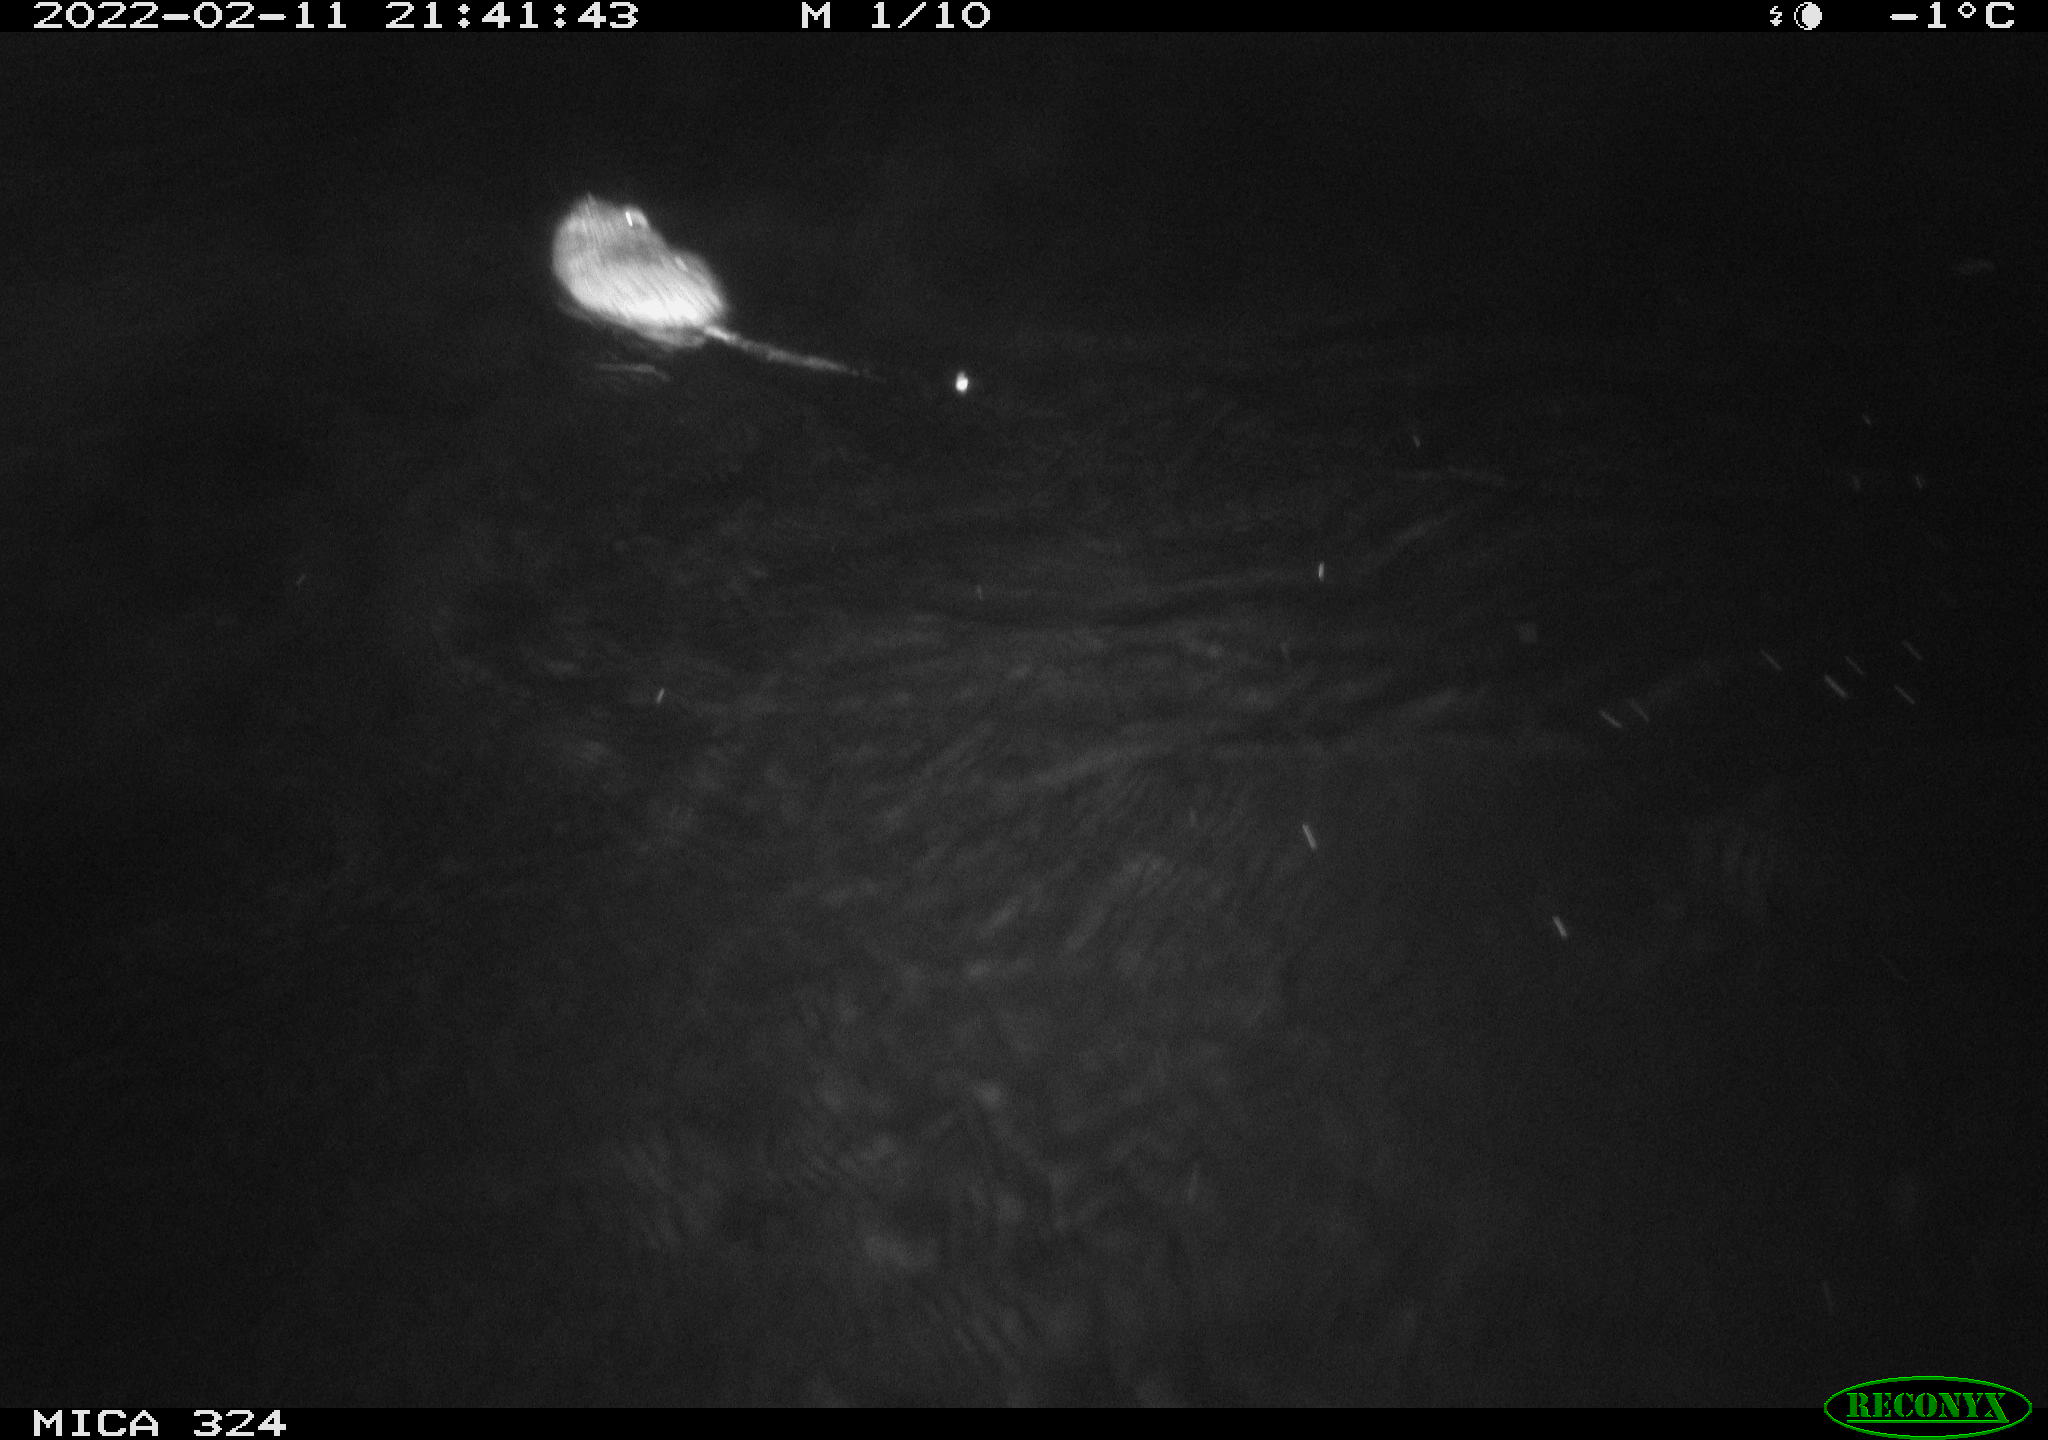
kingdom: Animalia
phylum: Chordata
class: Mammalia
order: Rodentia
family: Cricetidae
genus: Ondatra
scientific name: Ondatra zibethicus
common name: Muskrat
